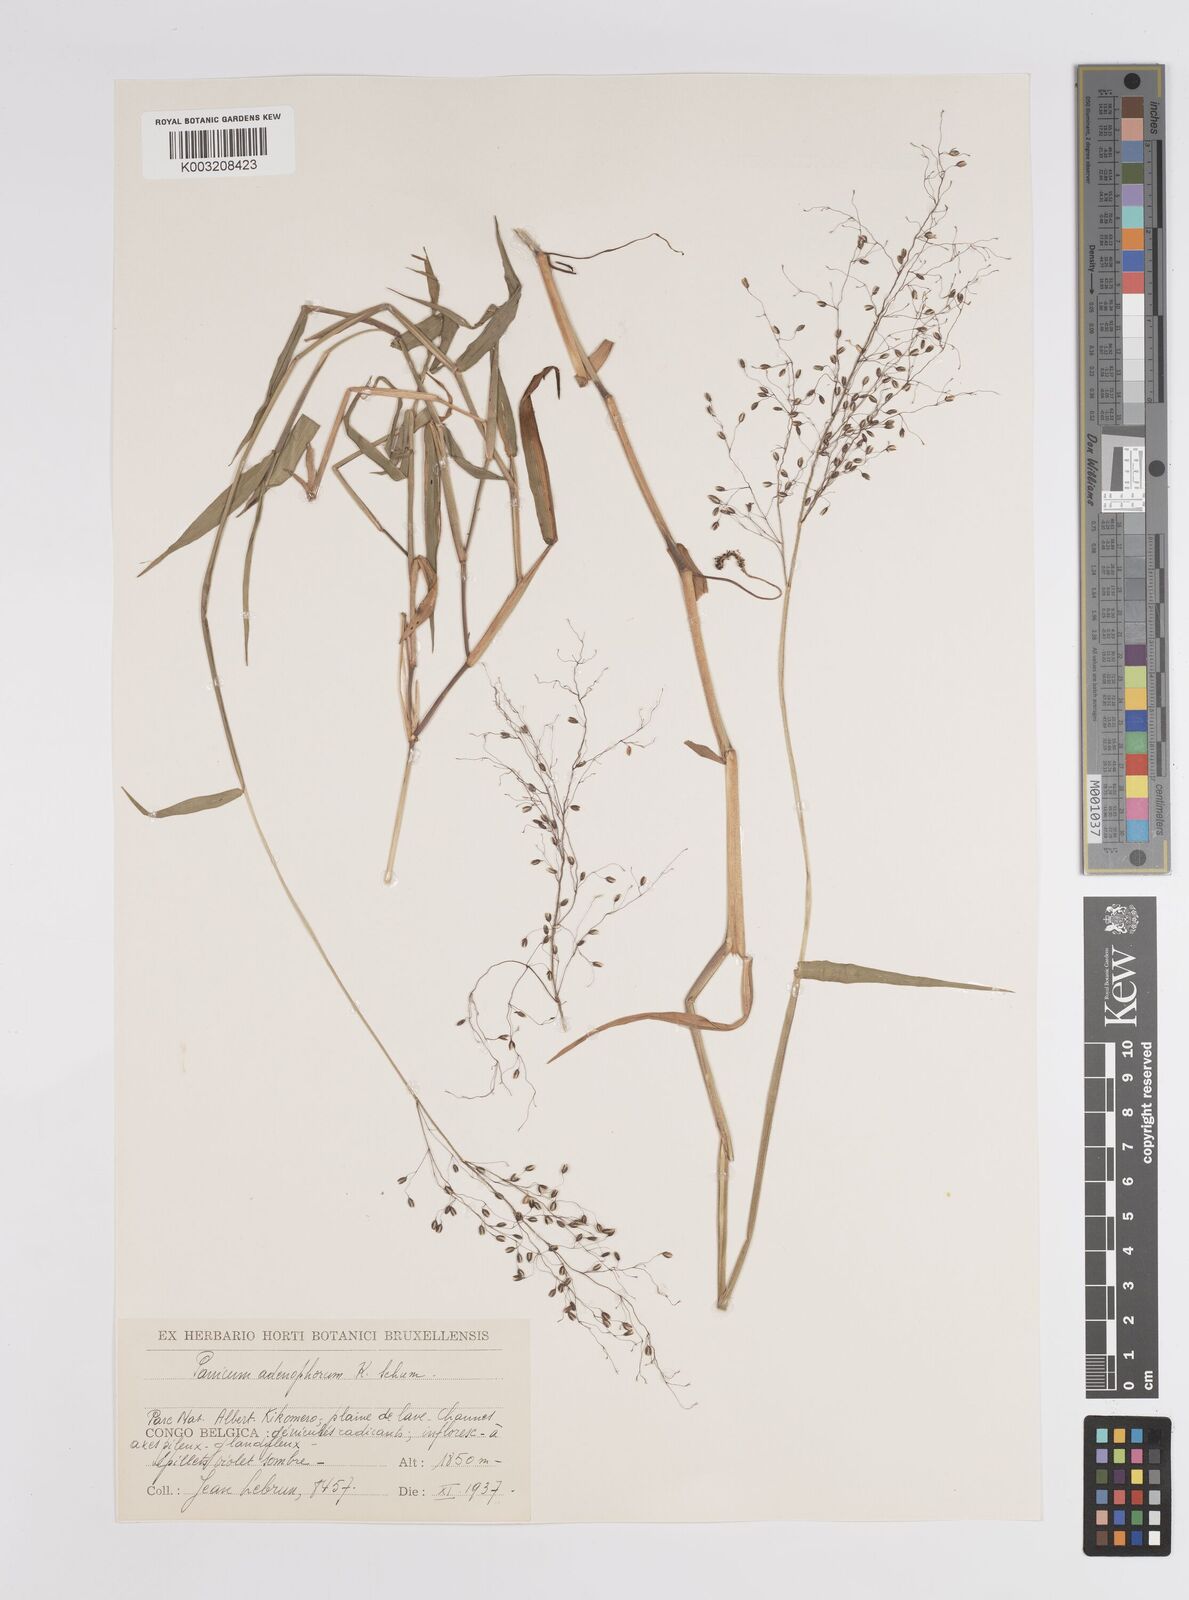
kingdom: Plantae
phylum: Tracheophyta
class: Liliopsida
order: Poales
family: Poaceae
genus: Adenochloa
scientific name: Adenochloa adenophora
